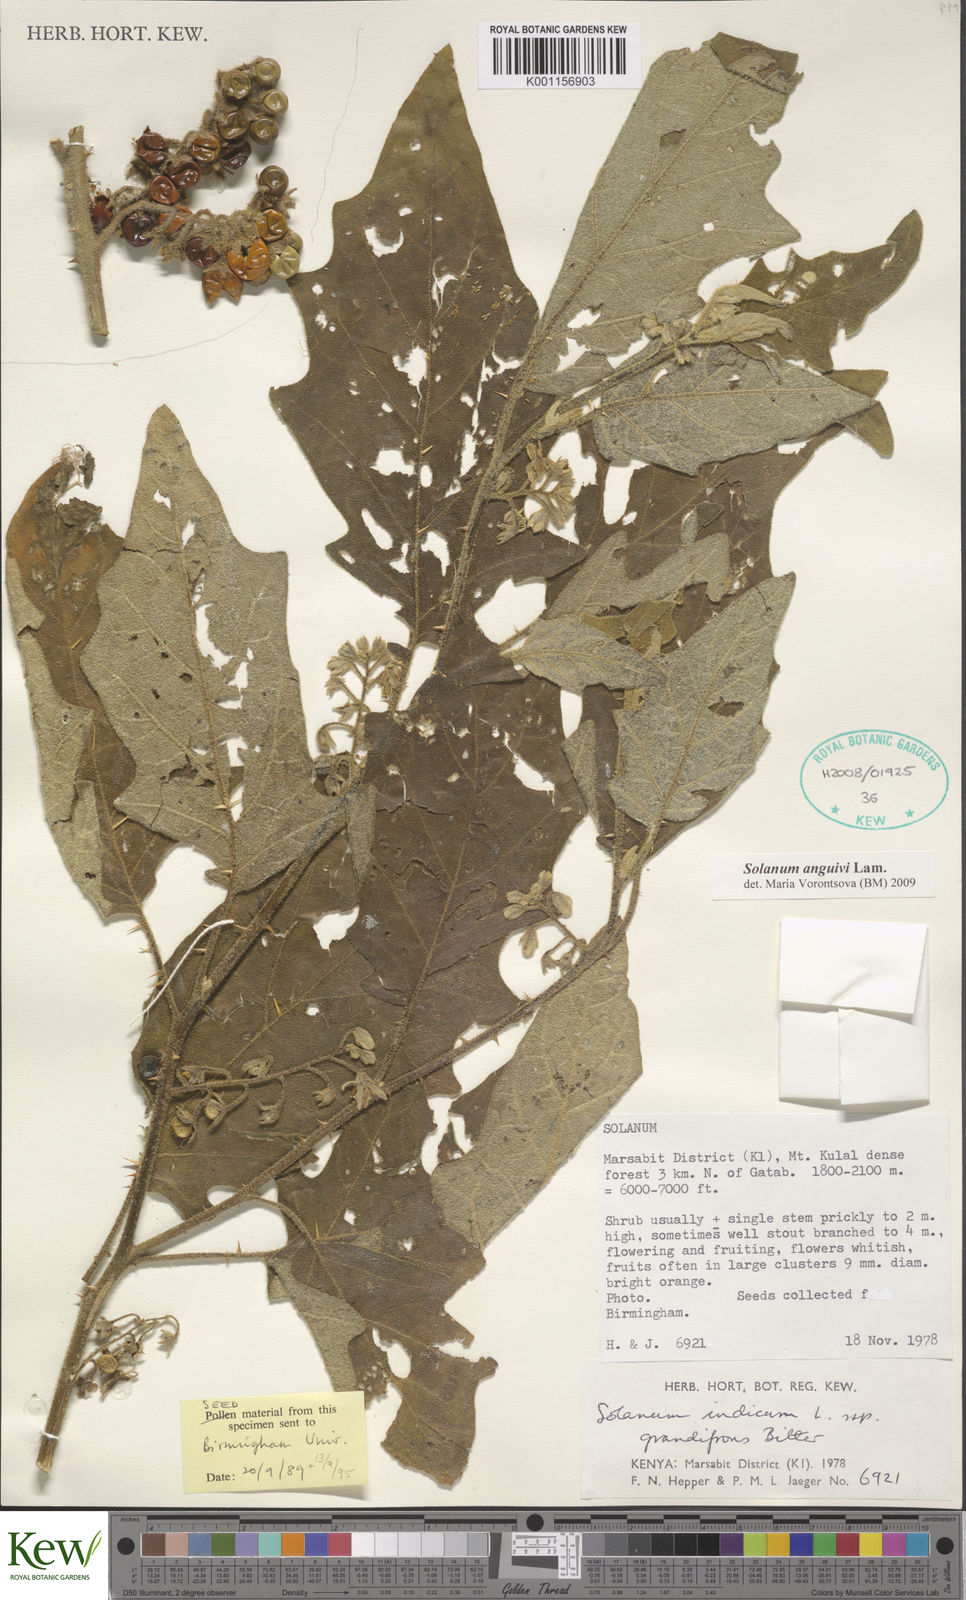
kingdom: Plantae
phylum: Tracheophyta
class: Magnoliopsida
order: Solanales
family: Solanaceae
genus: Solanum
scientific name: Solanum anguivi
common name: Forest bitterberry
